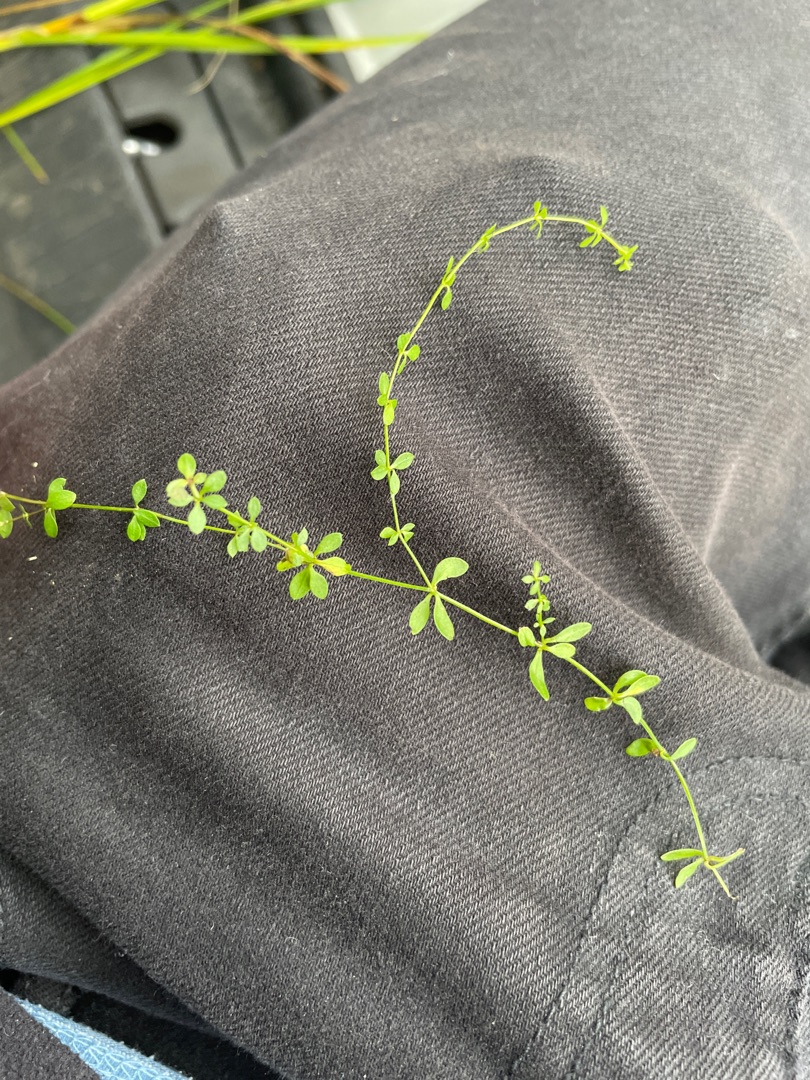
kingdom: Plantae
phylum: Tracheophyta
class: Magnoliopsida
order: Gentianales
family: Rubiaceae
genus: Galium
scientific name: Galium palustre
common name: Kær-snerre
